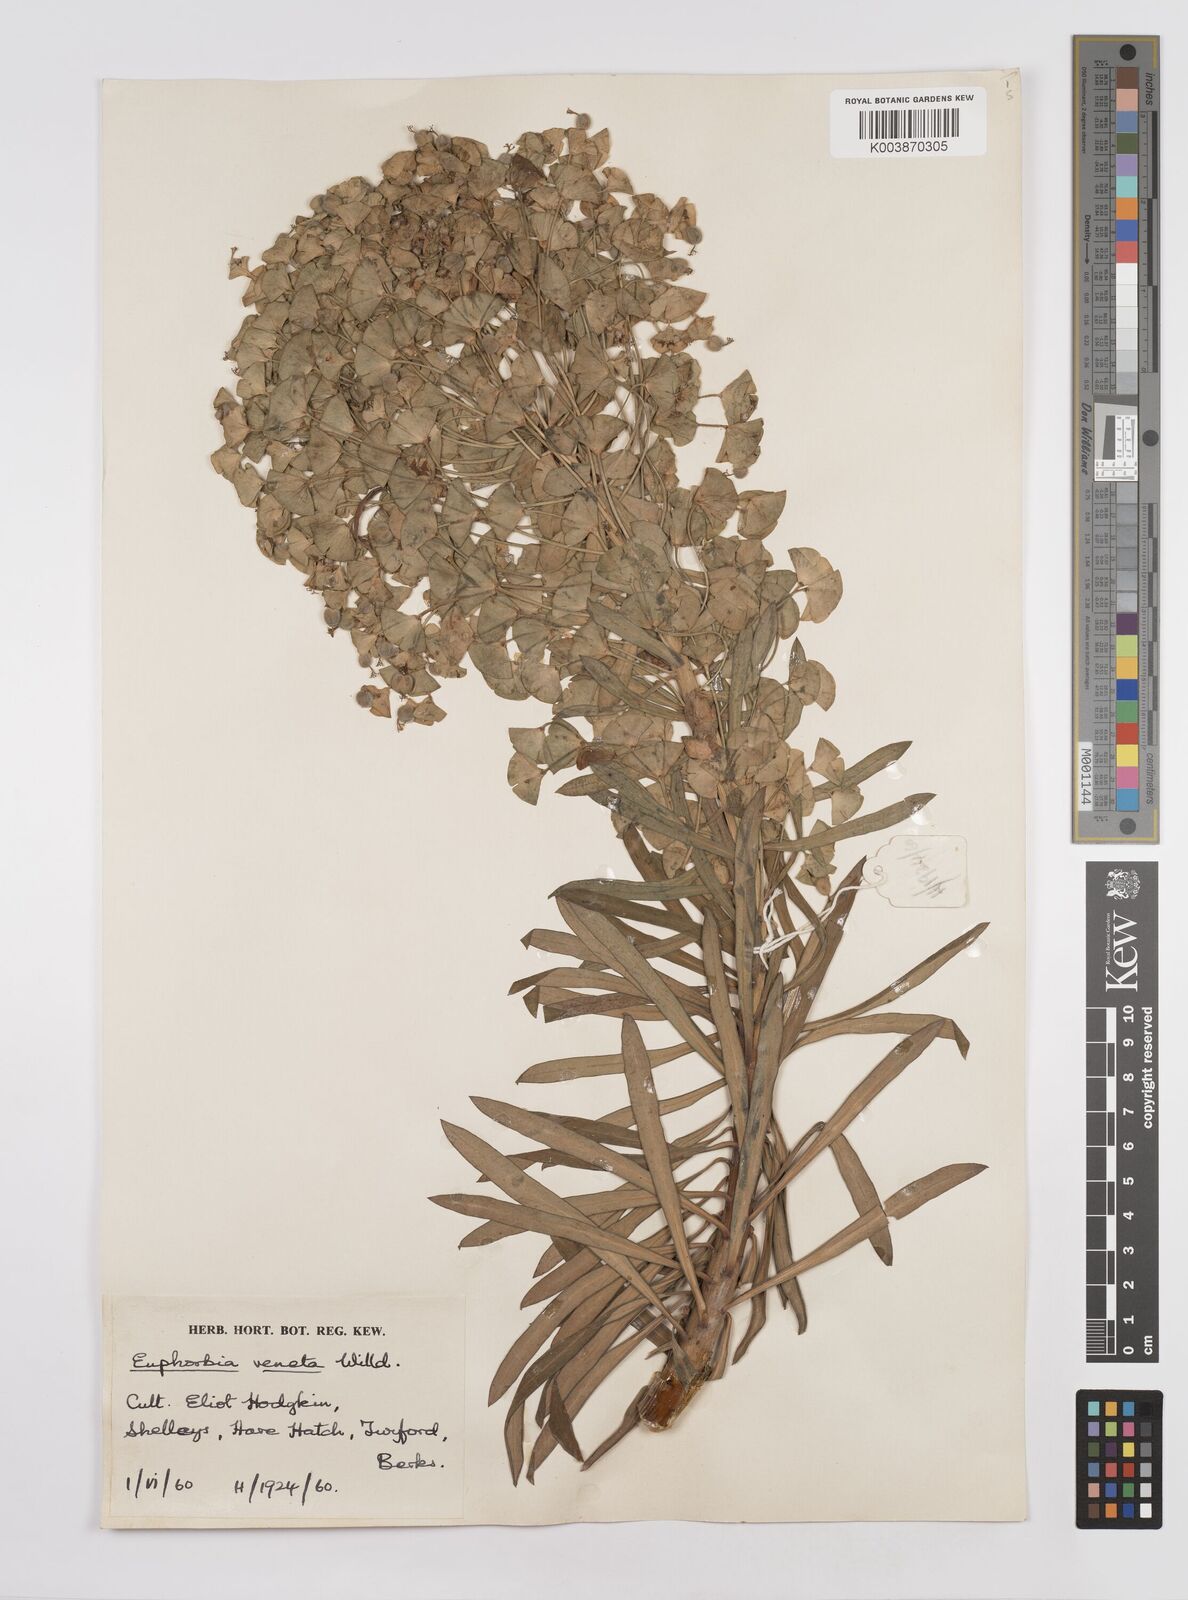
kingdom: Plantae
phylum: Tracheophyta
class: Magnoliopsida
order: Malpighiales
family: Euphorbiaceae
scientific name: Euphorbiaceae
